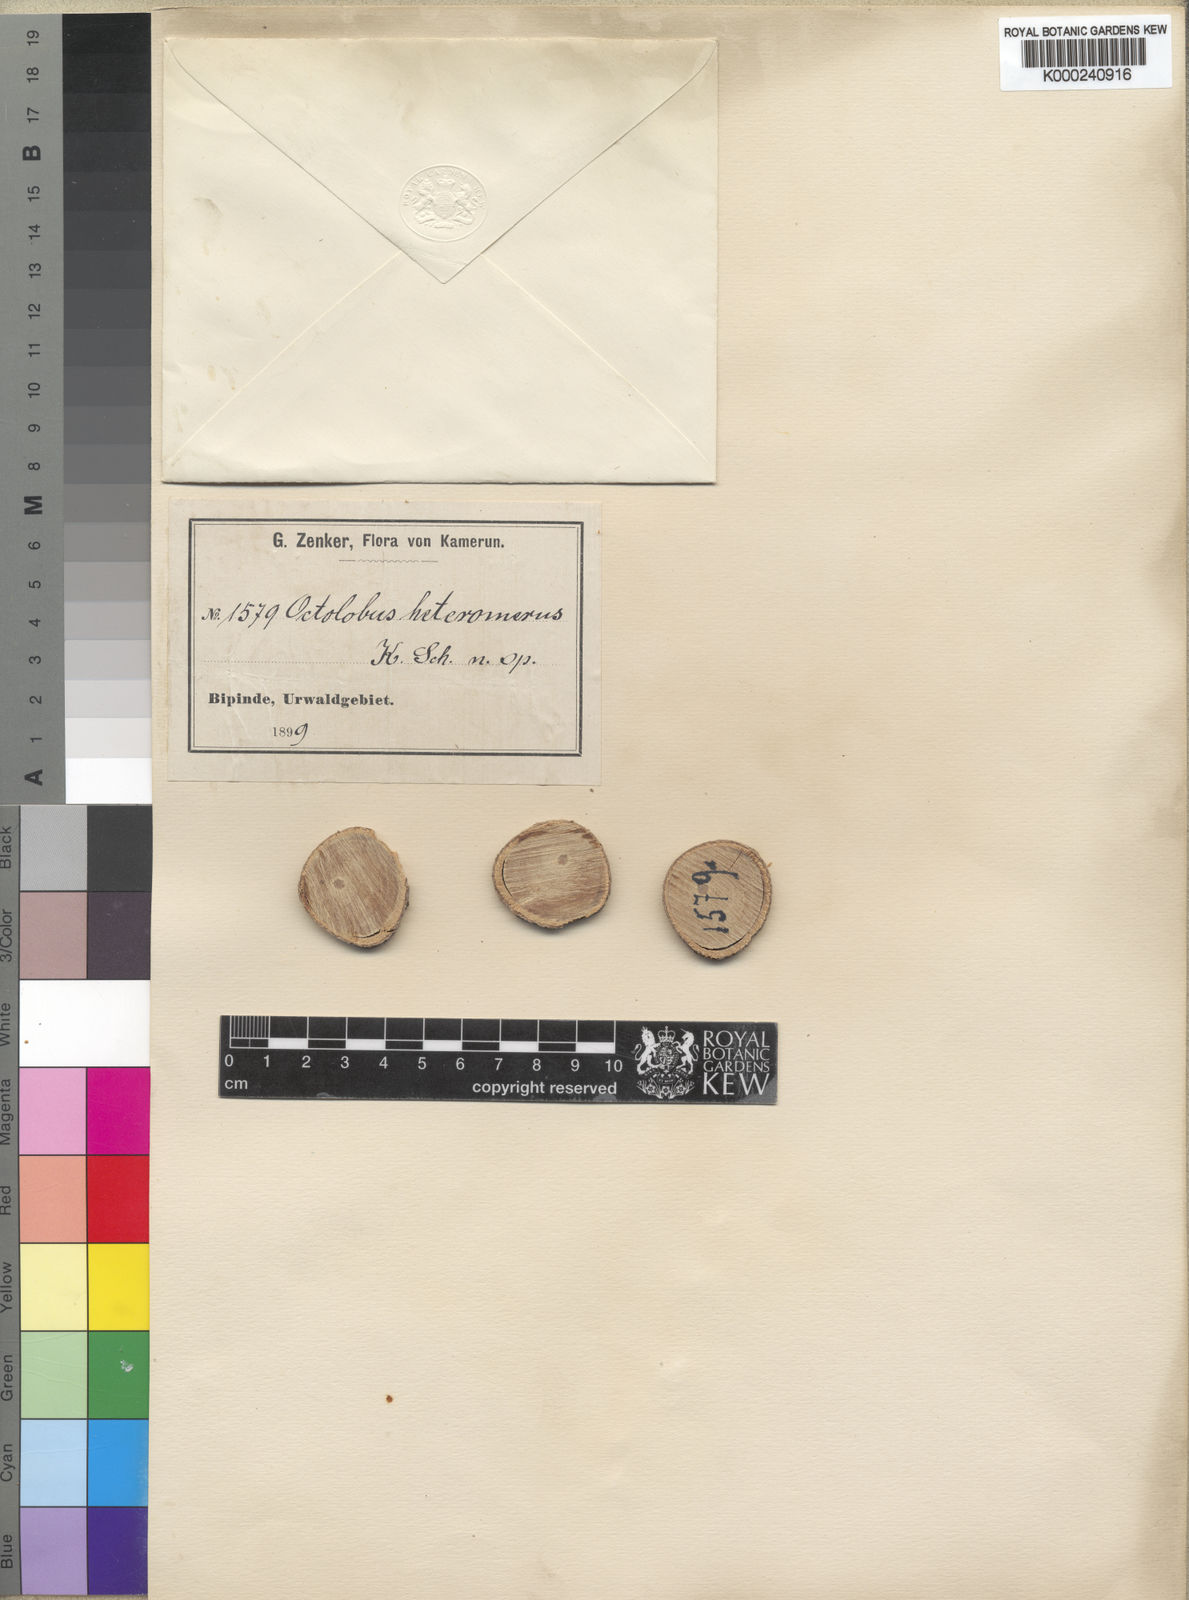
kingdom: Plantae
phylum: Tracheophyta
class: Magnoliopsida
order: Malvales
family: Malvaceae
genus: Octolobus
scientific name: Octolobus heteromerus
